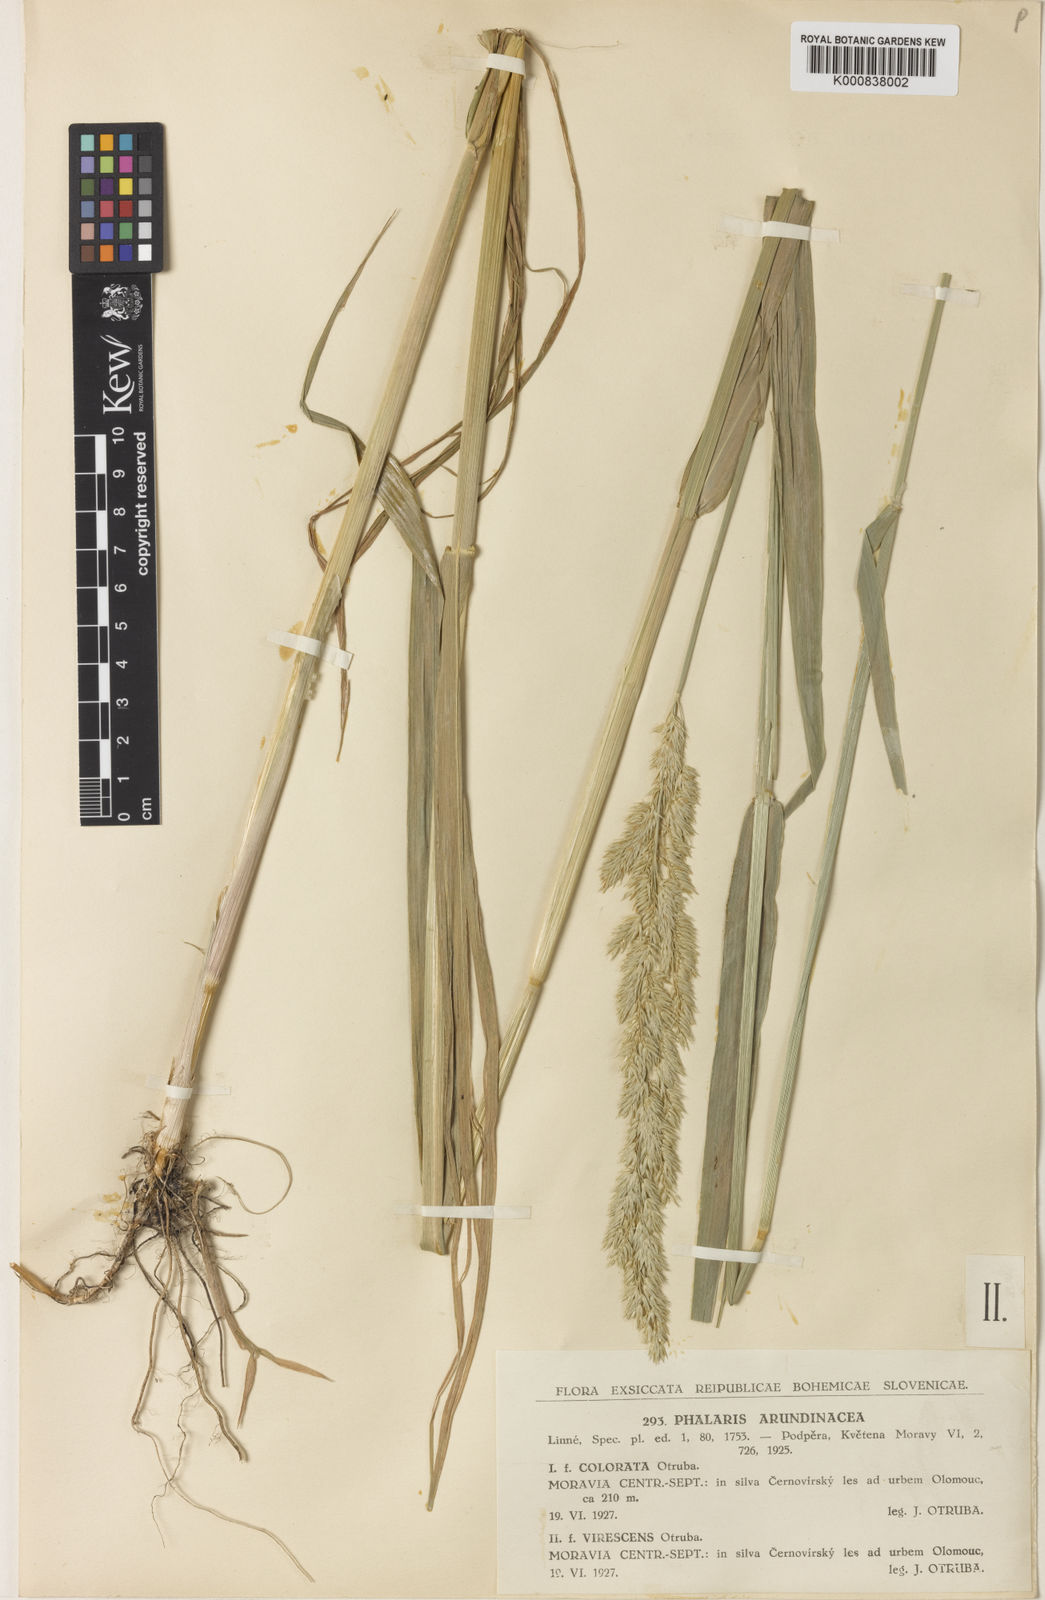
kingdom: Plantae
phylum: Tracheophyta
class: Liliopsida
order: Poales
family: Poaceae
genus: Phalaris
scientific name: Phalaris arundinacea
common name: Reed canary-grass
